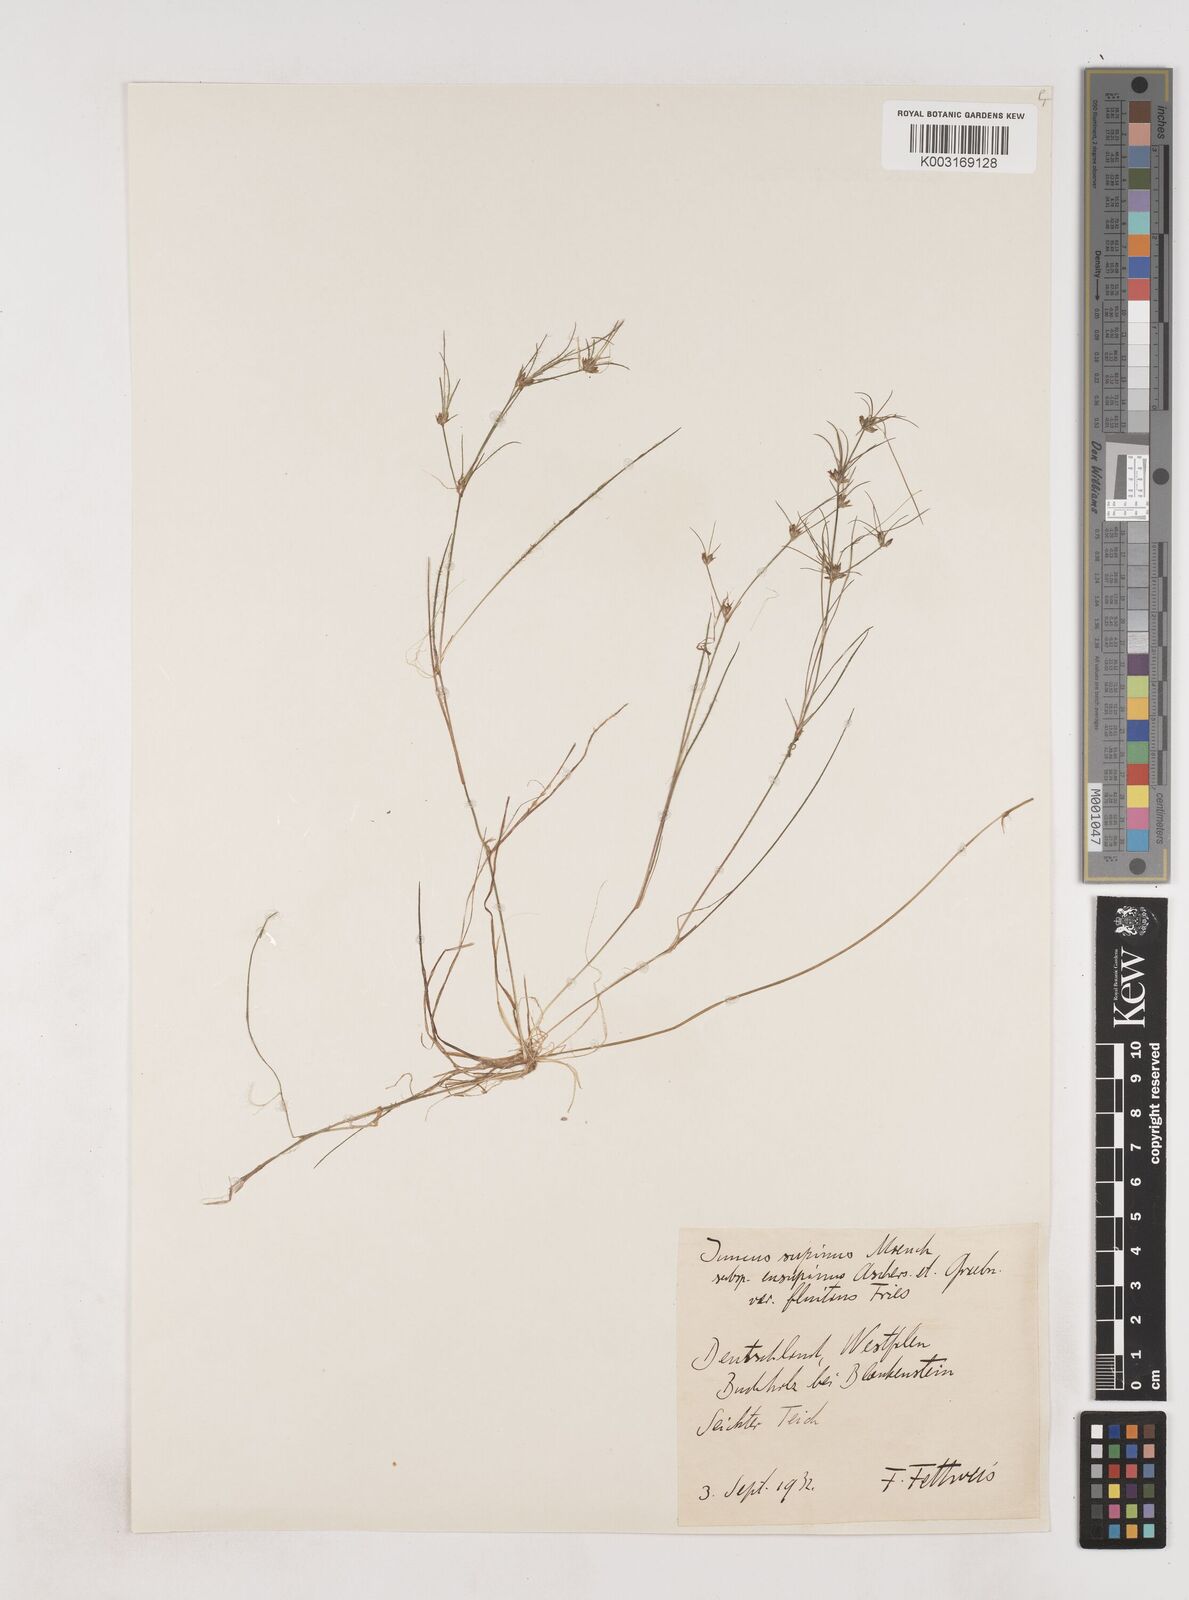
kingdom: Plantae
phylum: Tracheophyta
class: Liliopsida
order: Poales
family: Juncaceae
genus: Juncus
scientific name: Juncus bulbosus
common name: Bulbous rush
